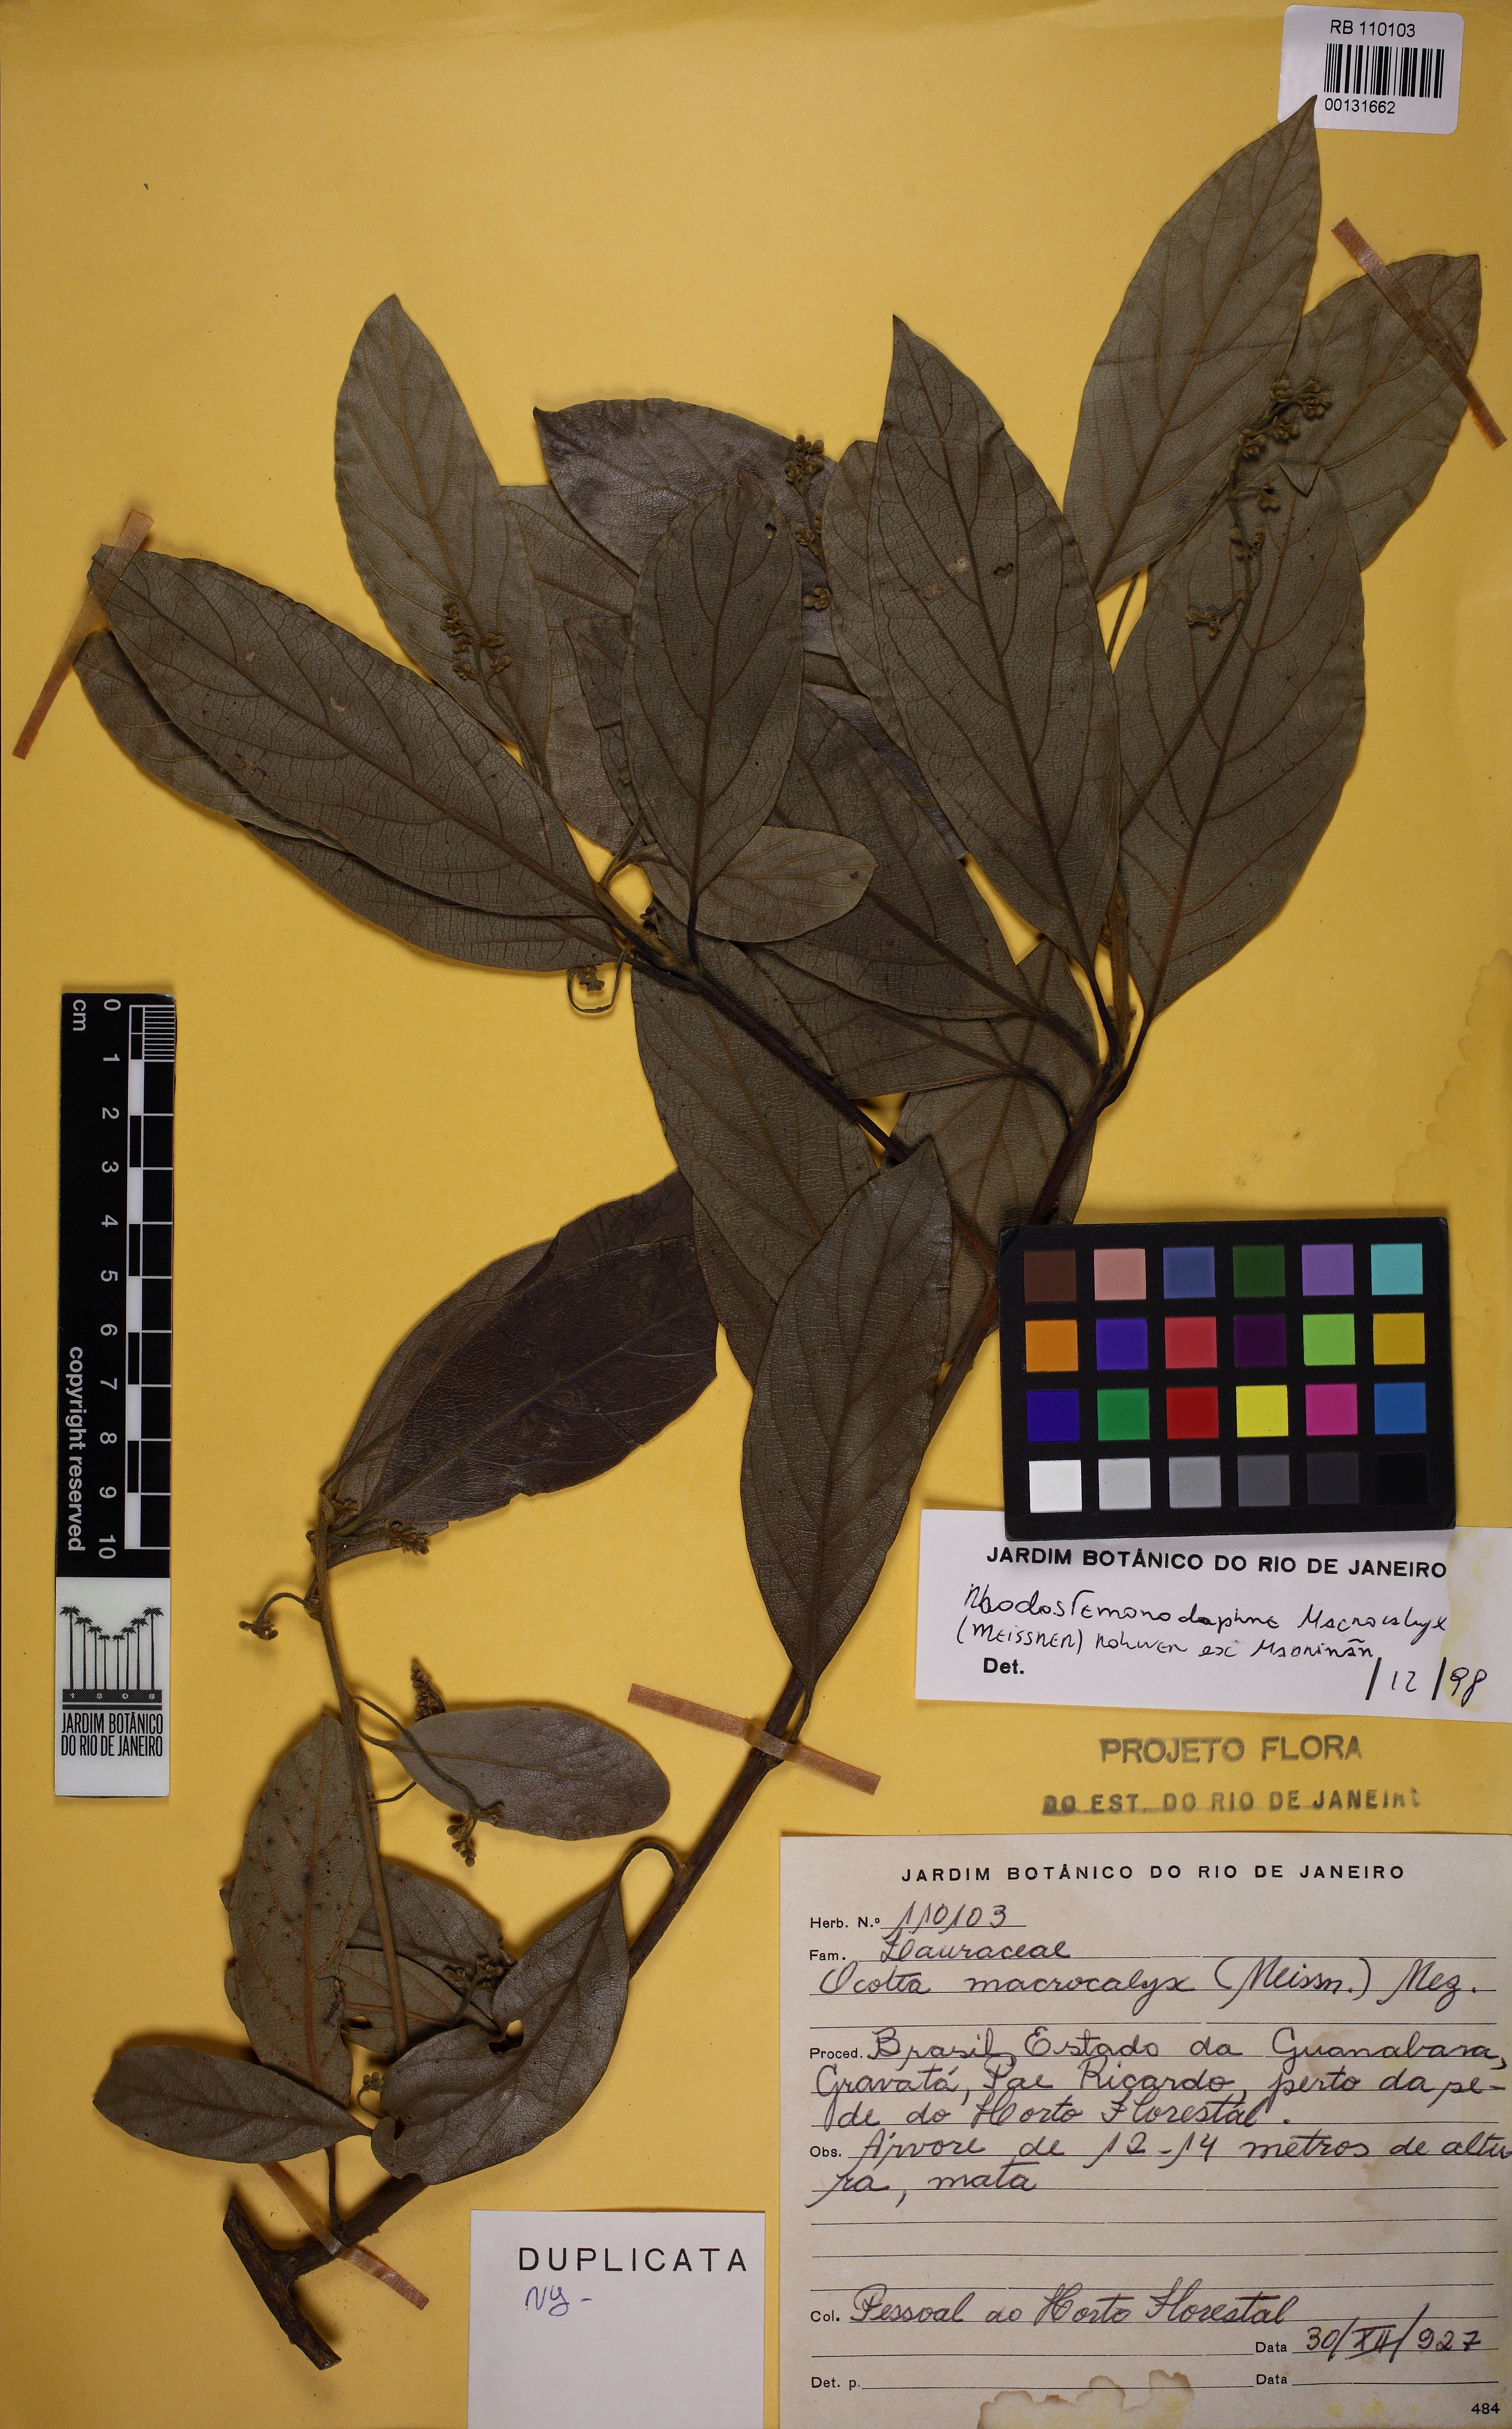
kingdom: Plantae
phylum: Tracheophyta
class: Magnoliopsida
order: Laurales
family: Lauraceae
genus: Rhodostemonodaphne
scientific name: Rhodostemonodaphne macrocalyx
